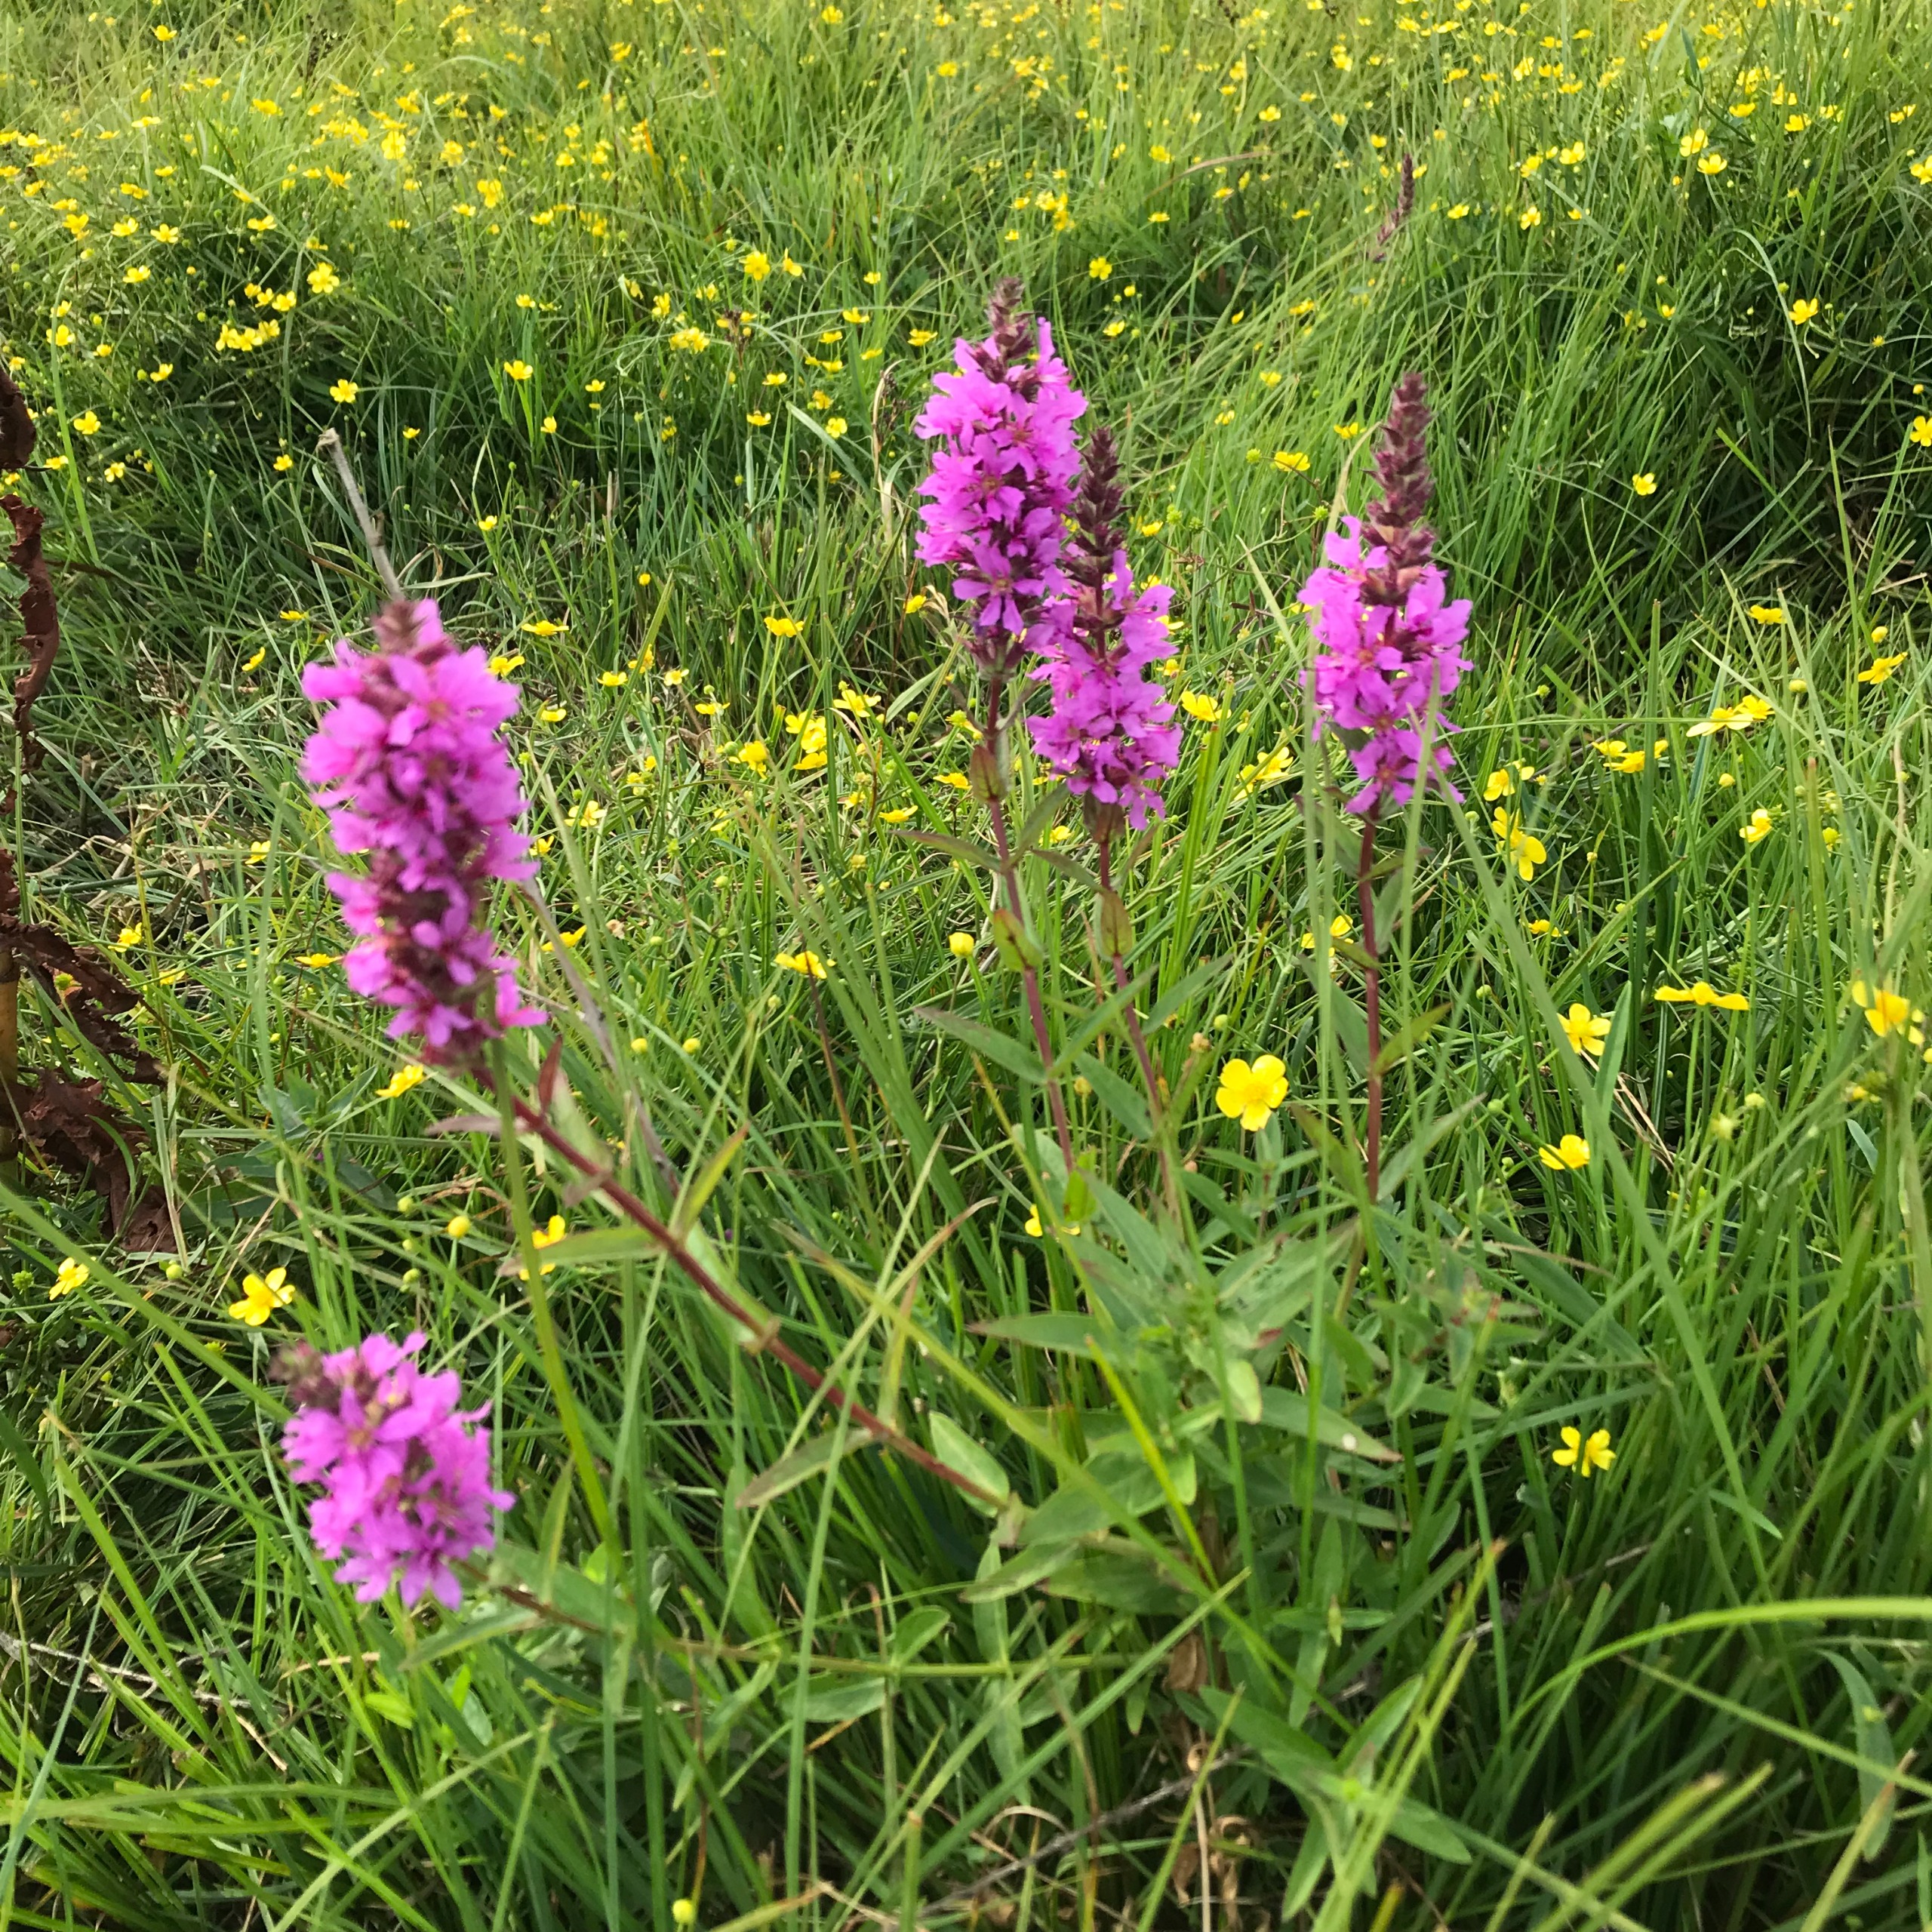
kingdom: Plantae
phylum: Tracheophyta
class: Magnoliopsida
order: Myrtales
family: Lythraceae
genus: Lythrum
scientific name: Lythrum salicaria
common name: Kattehale
